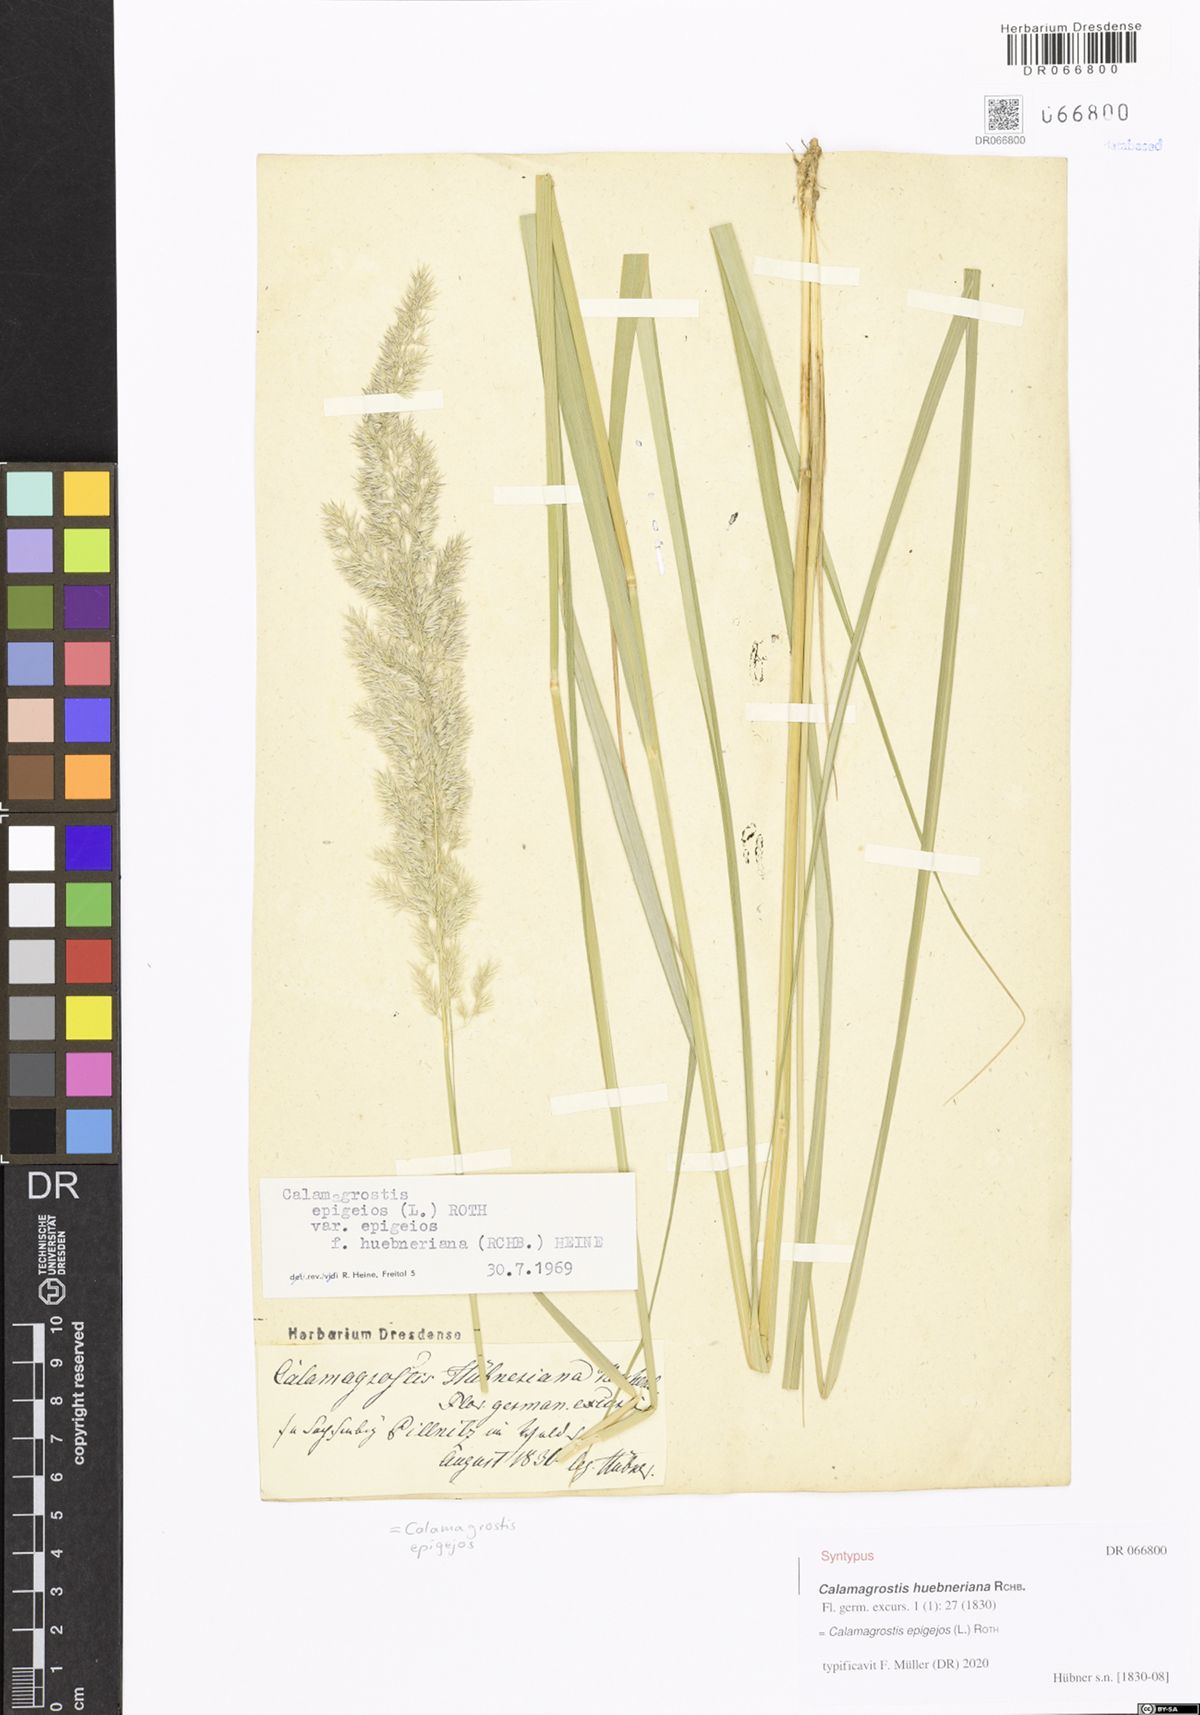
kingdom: Plantae
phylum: Tracheophyta
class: Liliopsida
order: Poales
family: Poaceae
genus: Calamagrostis
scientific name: Calamagrostis epigejos
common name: Wood small-reed
